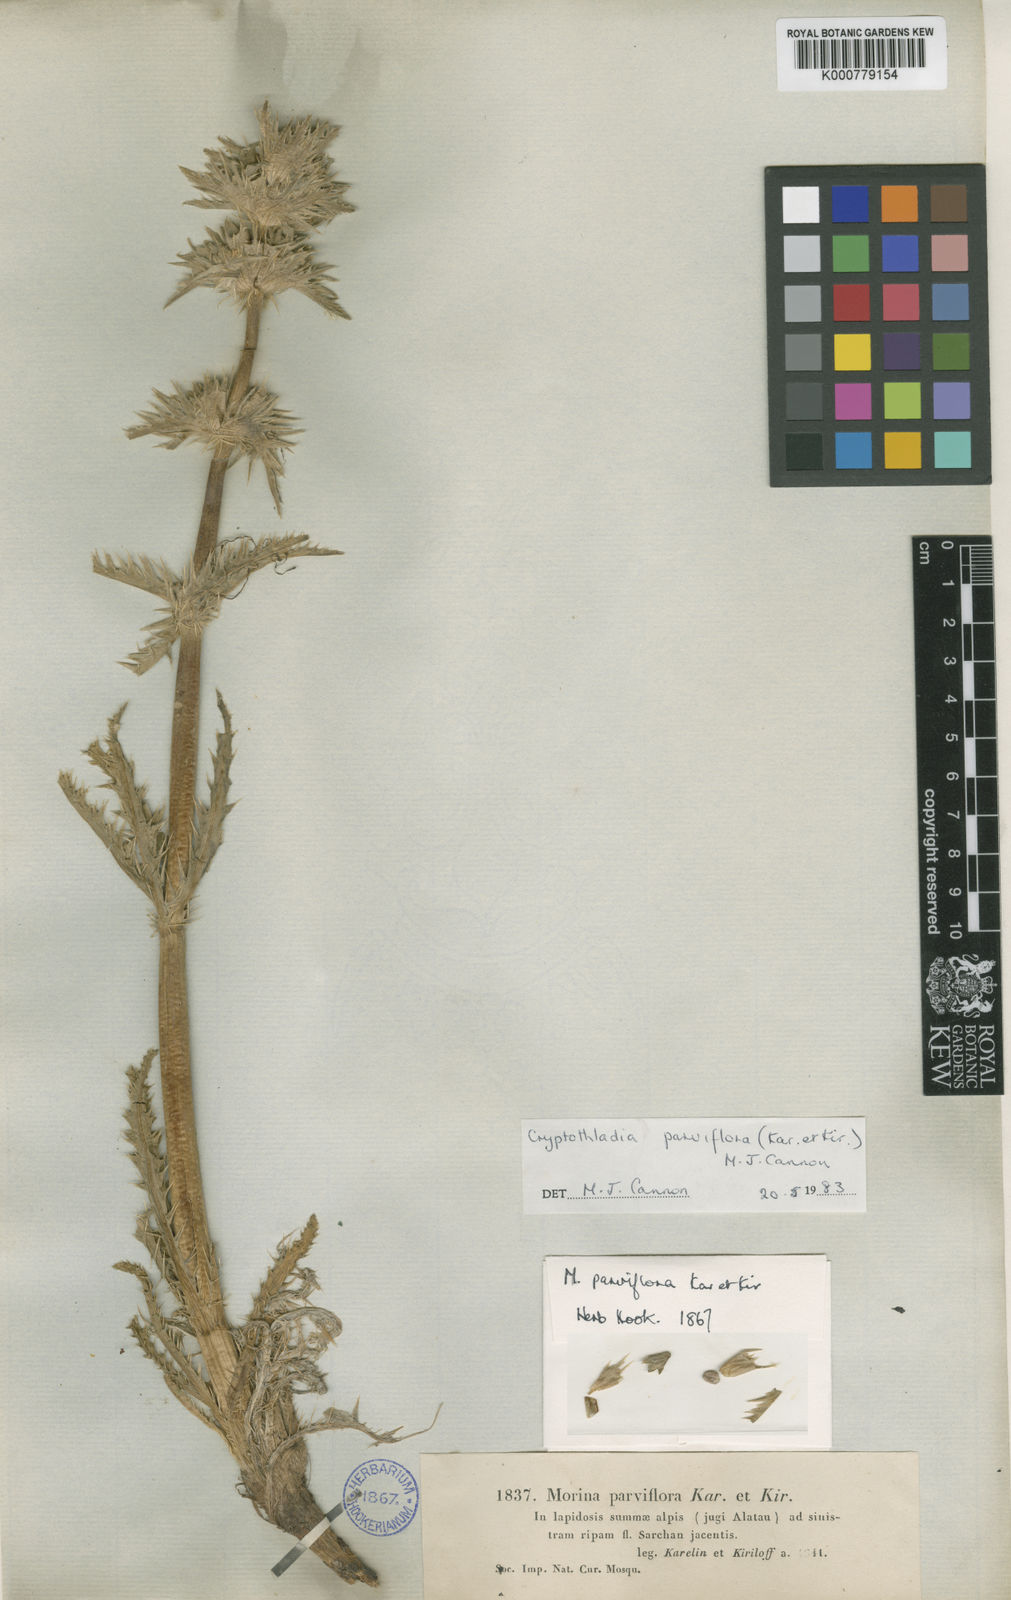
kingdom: Plantae
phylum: Tracheophyta
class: Magnoliopsida
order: Dipsacales
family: Caprifoliaceae
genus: Cryptothladia
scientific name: Cryptothladia parviflora
